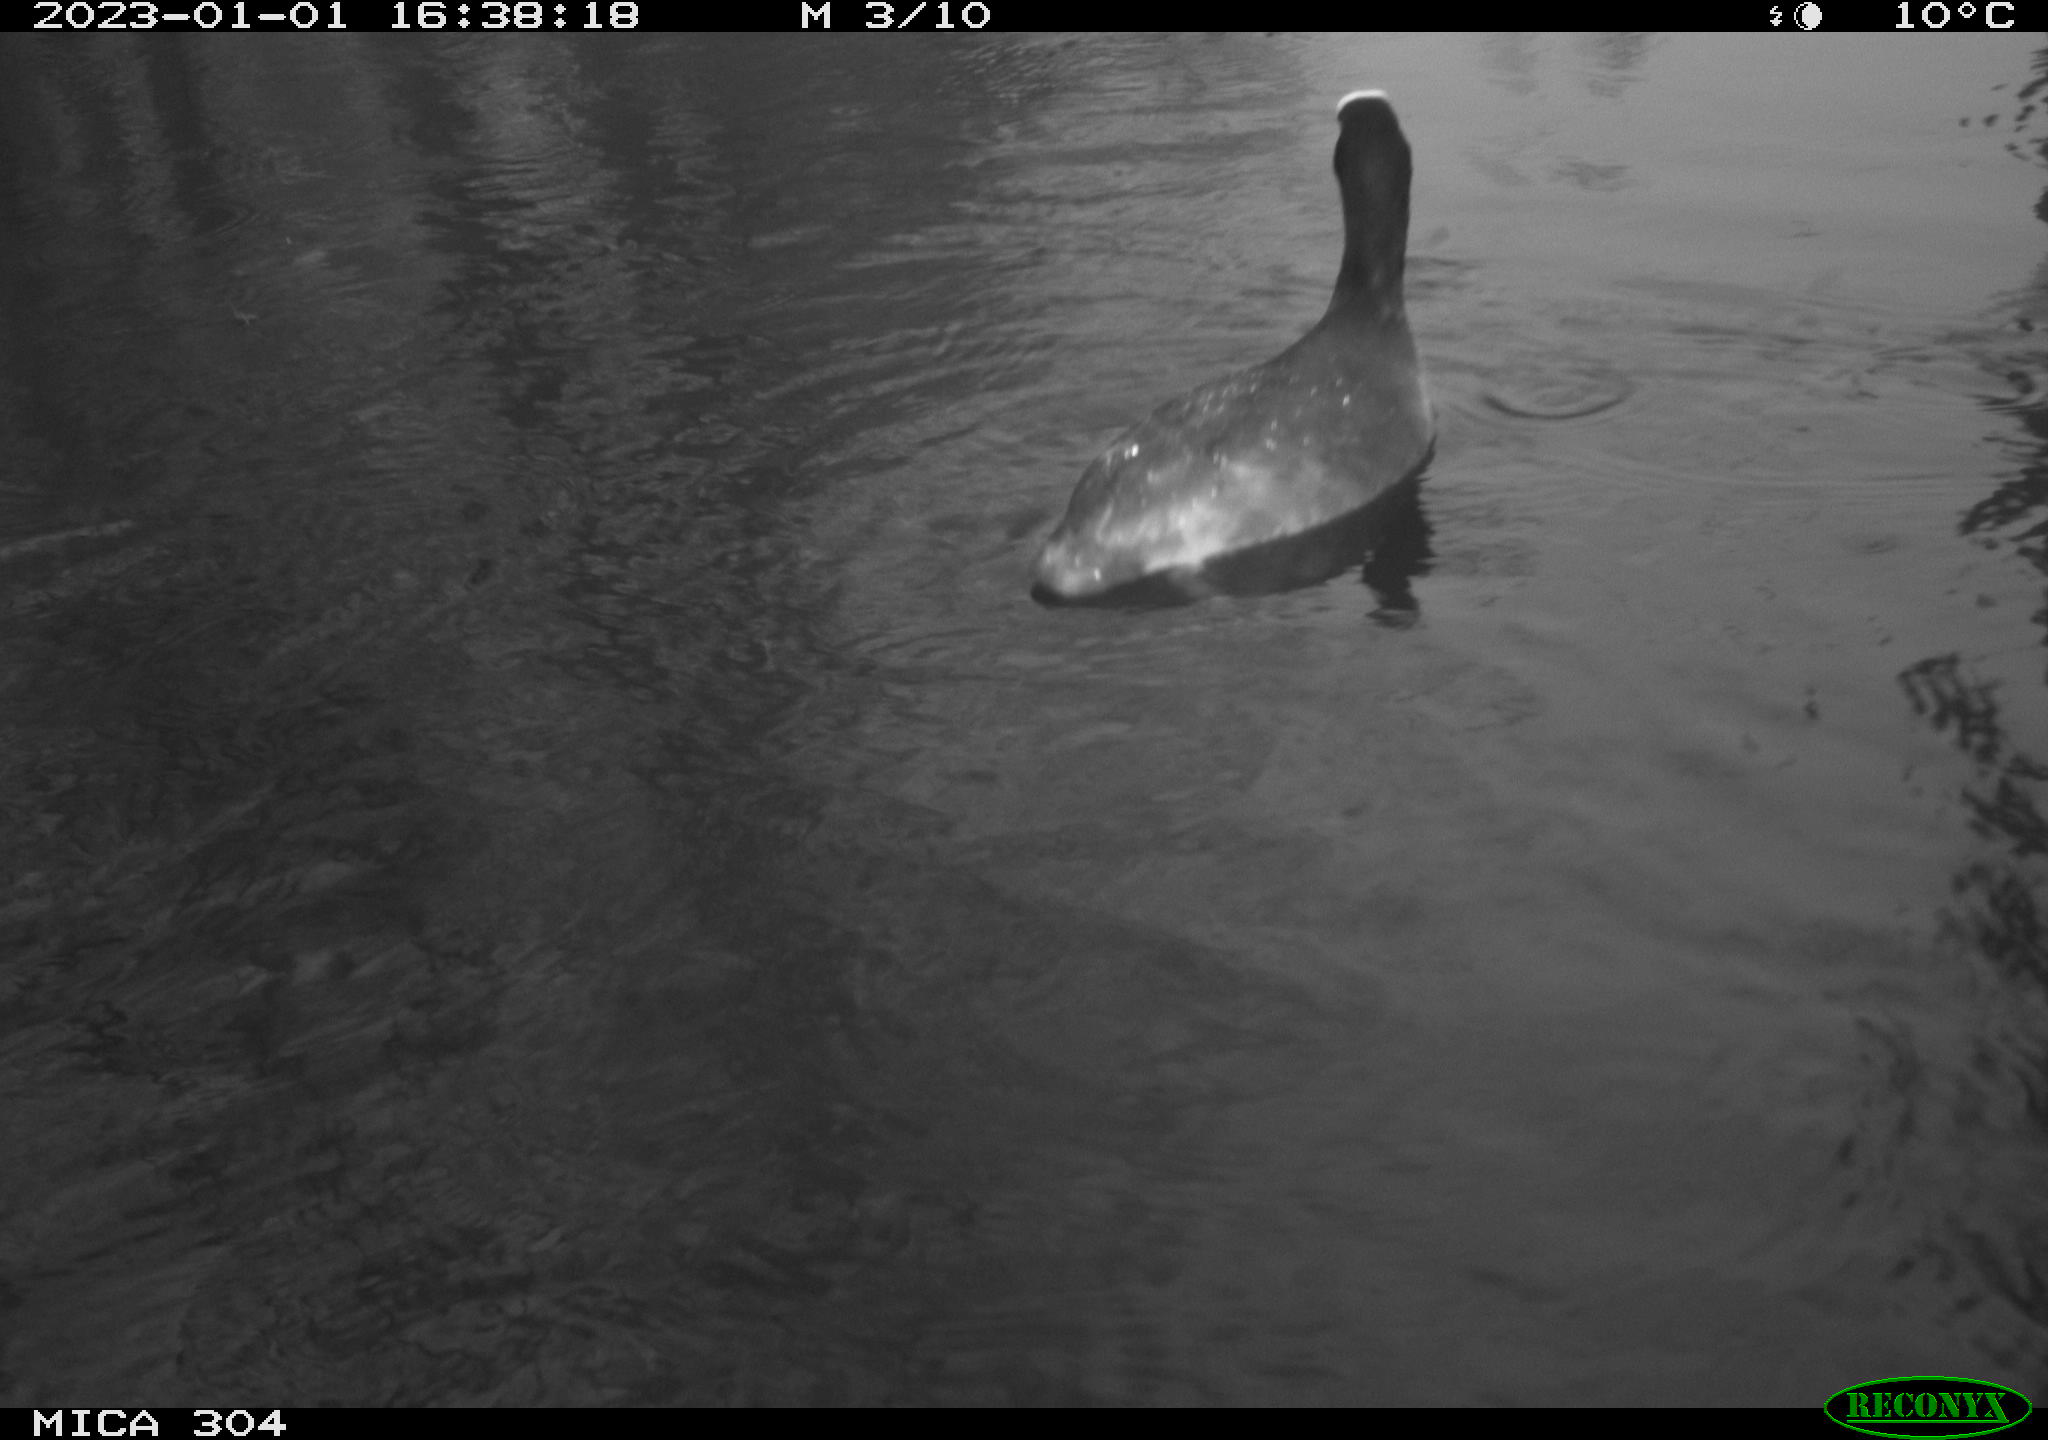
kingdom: Animalia
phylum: Chordata
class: Aves
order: Pelecaniformes
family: Ardeidae
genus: Ardea
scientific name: Ardea cinerea
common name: Grey heron
